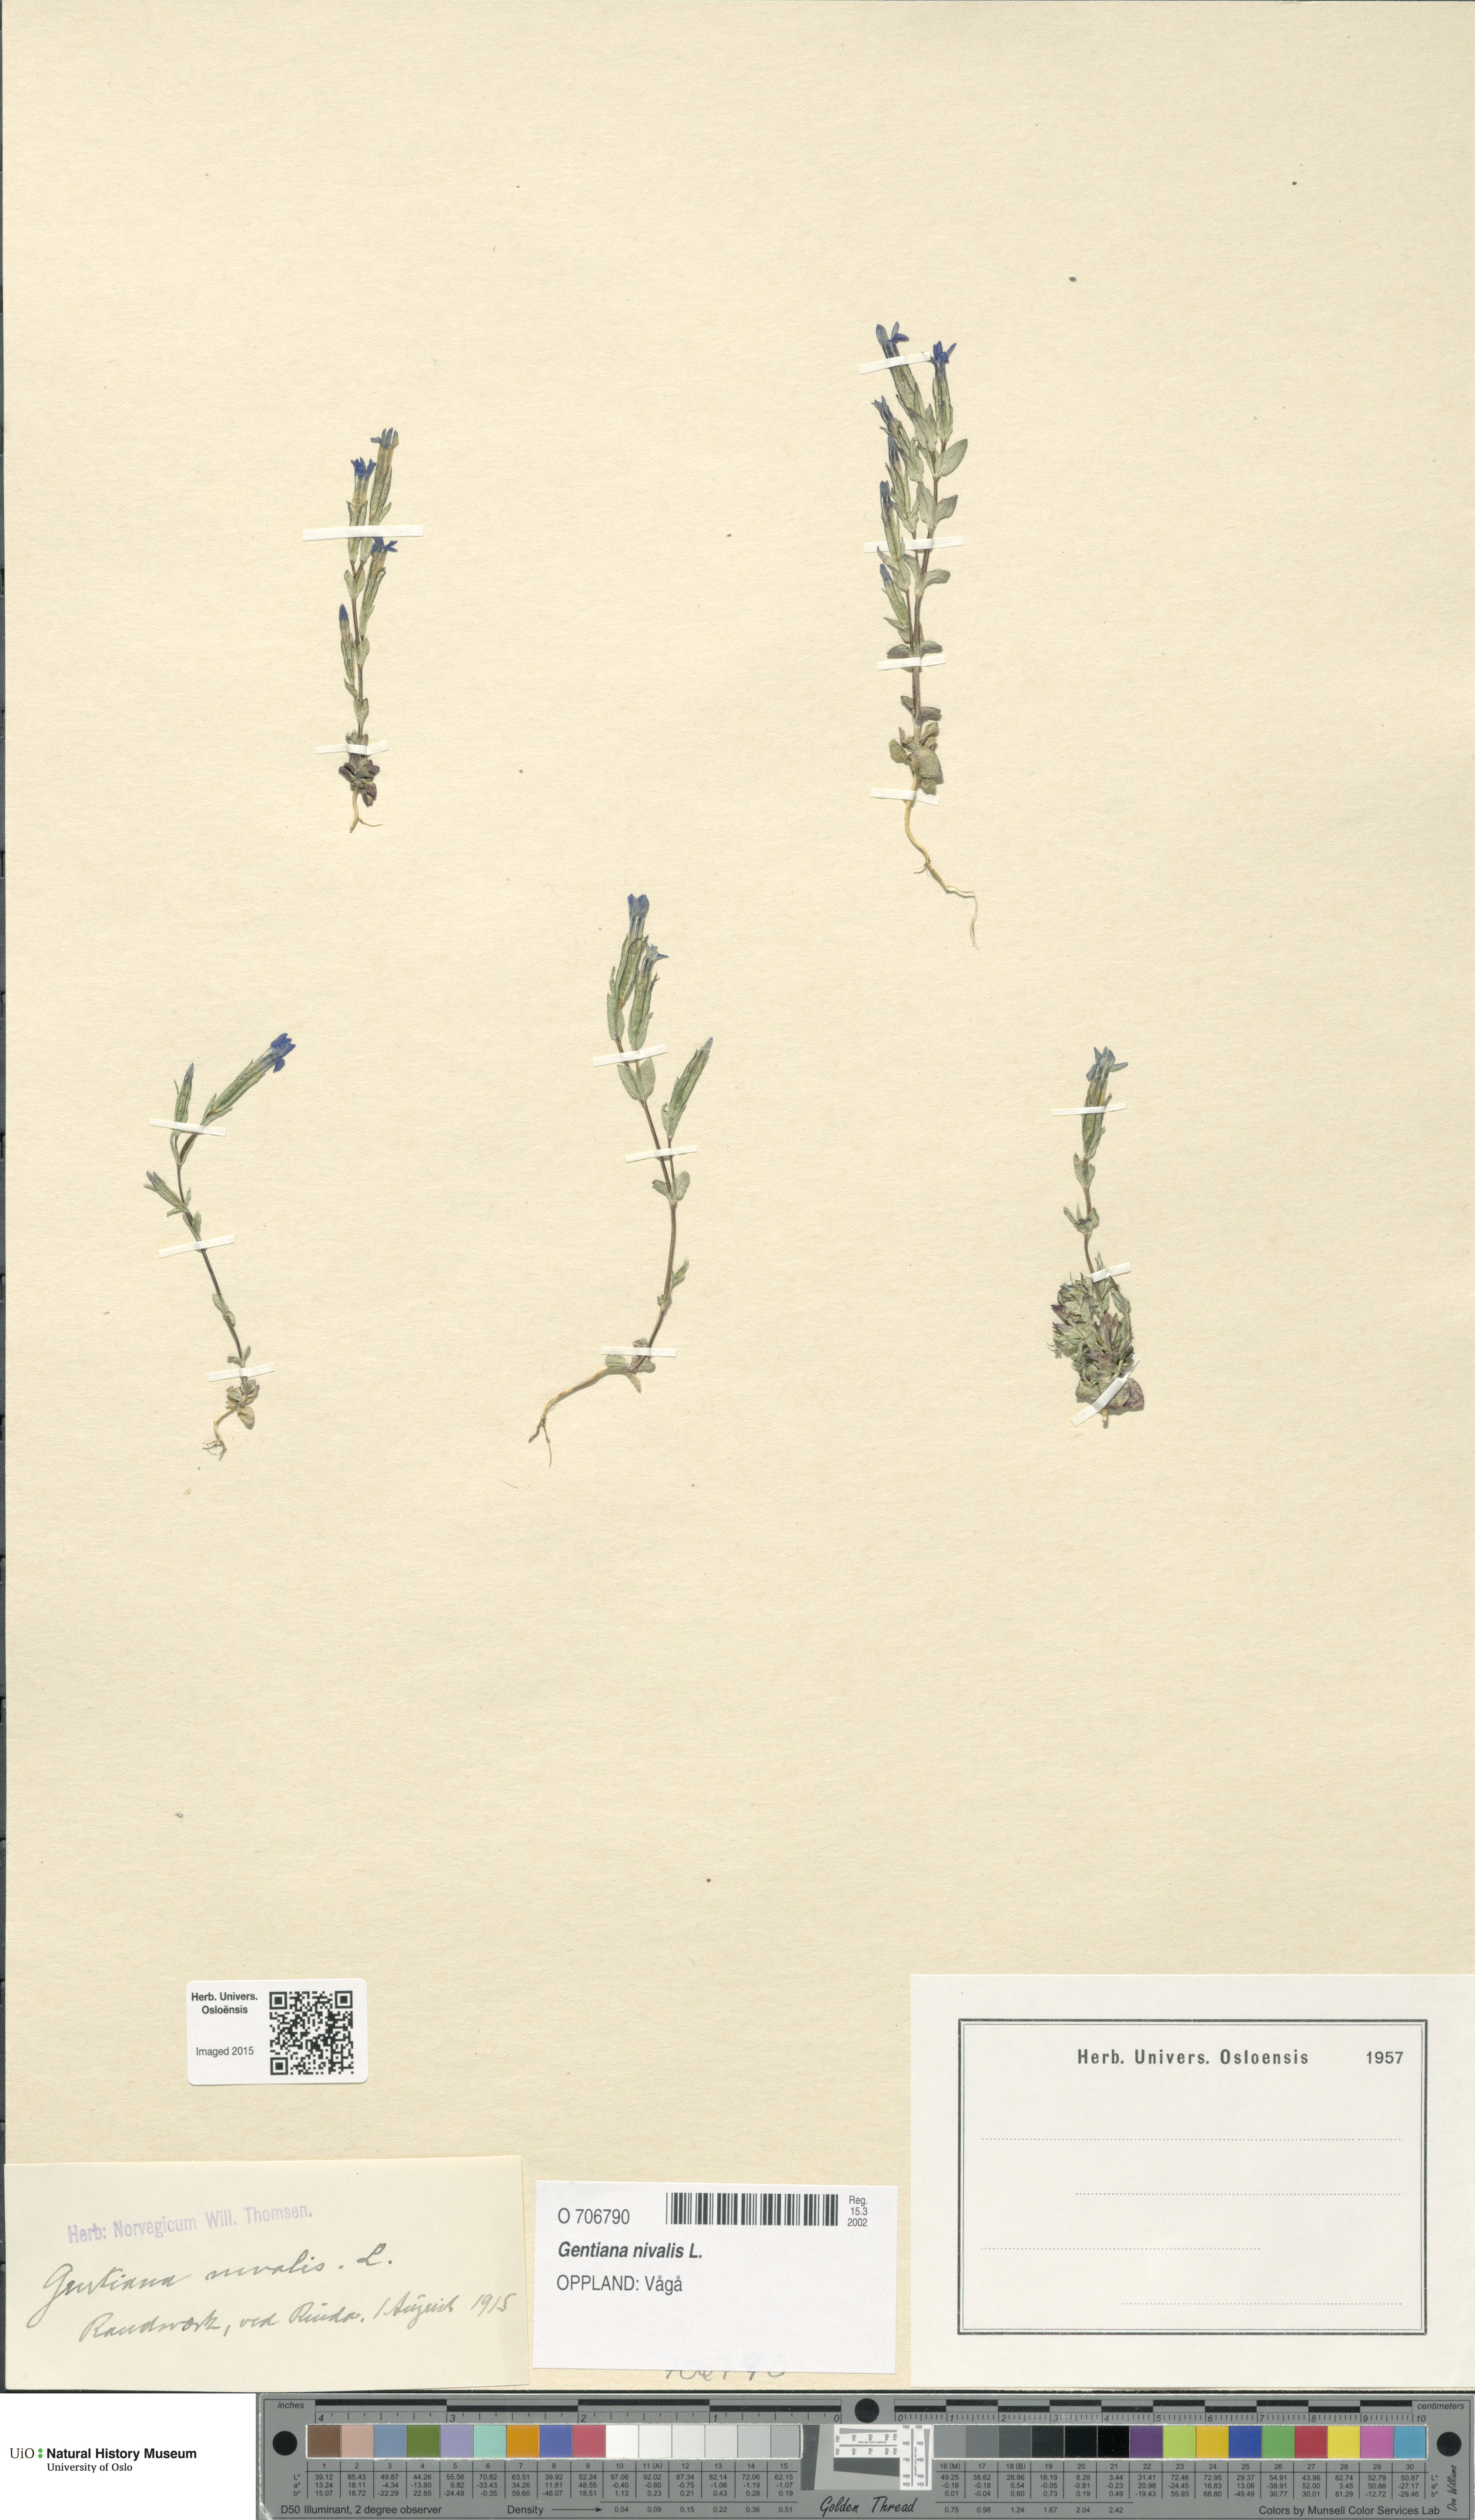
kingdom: Plantae
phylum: Tracheophyta
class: Magnoliopsida
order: Gentianales
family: Gentianaceae
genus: Gentiana
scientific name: Gentiana nivalis
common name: Alpine gentian
